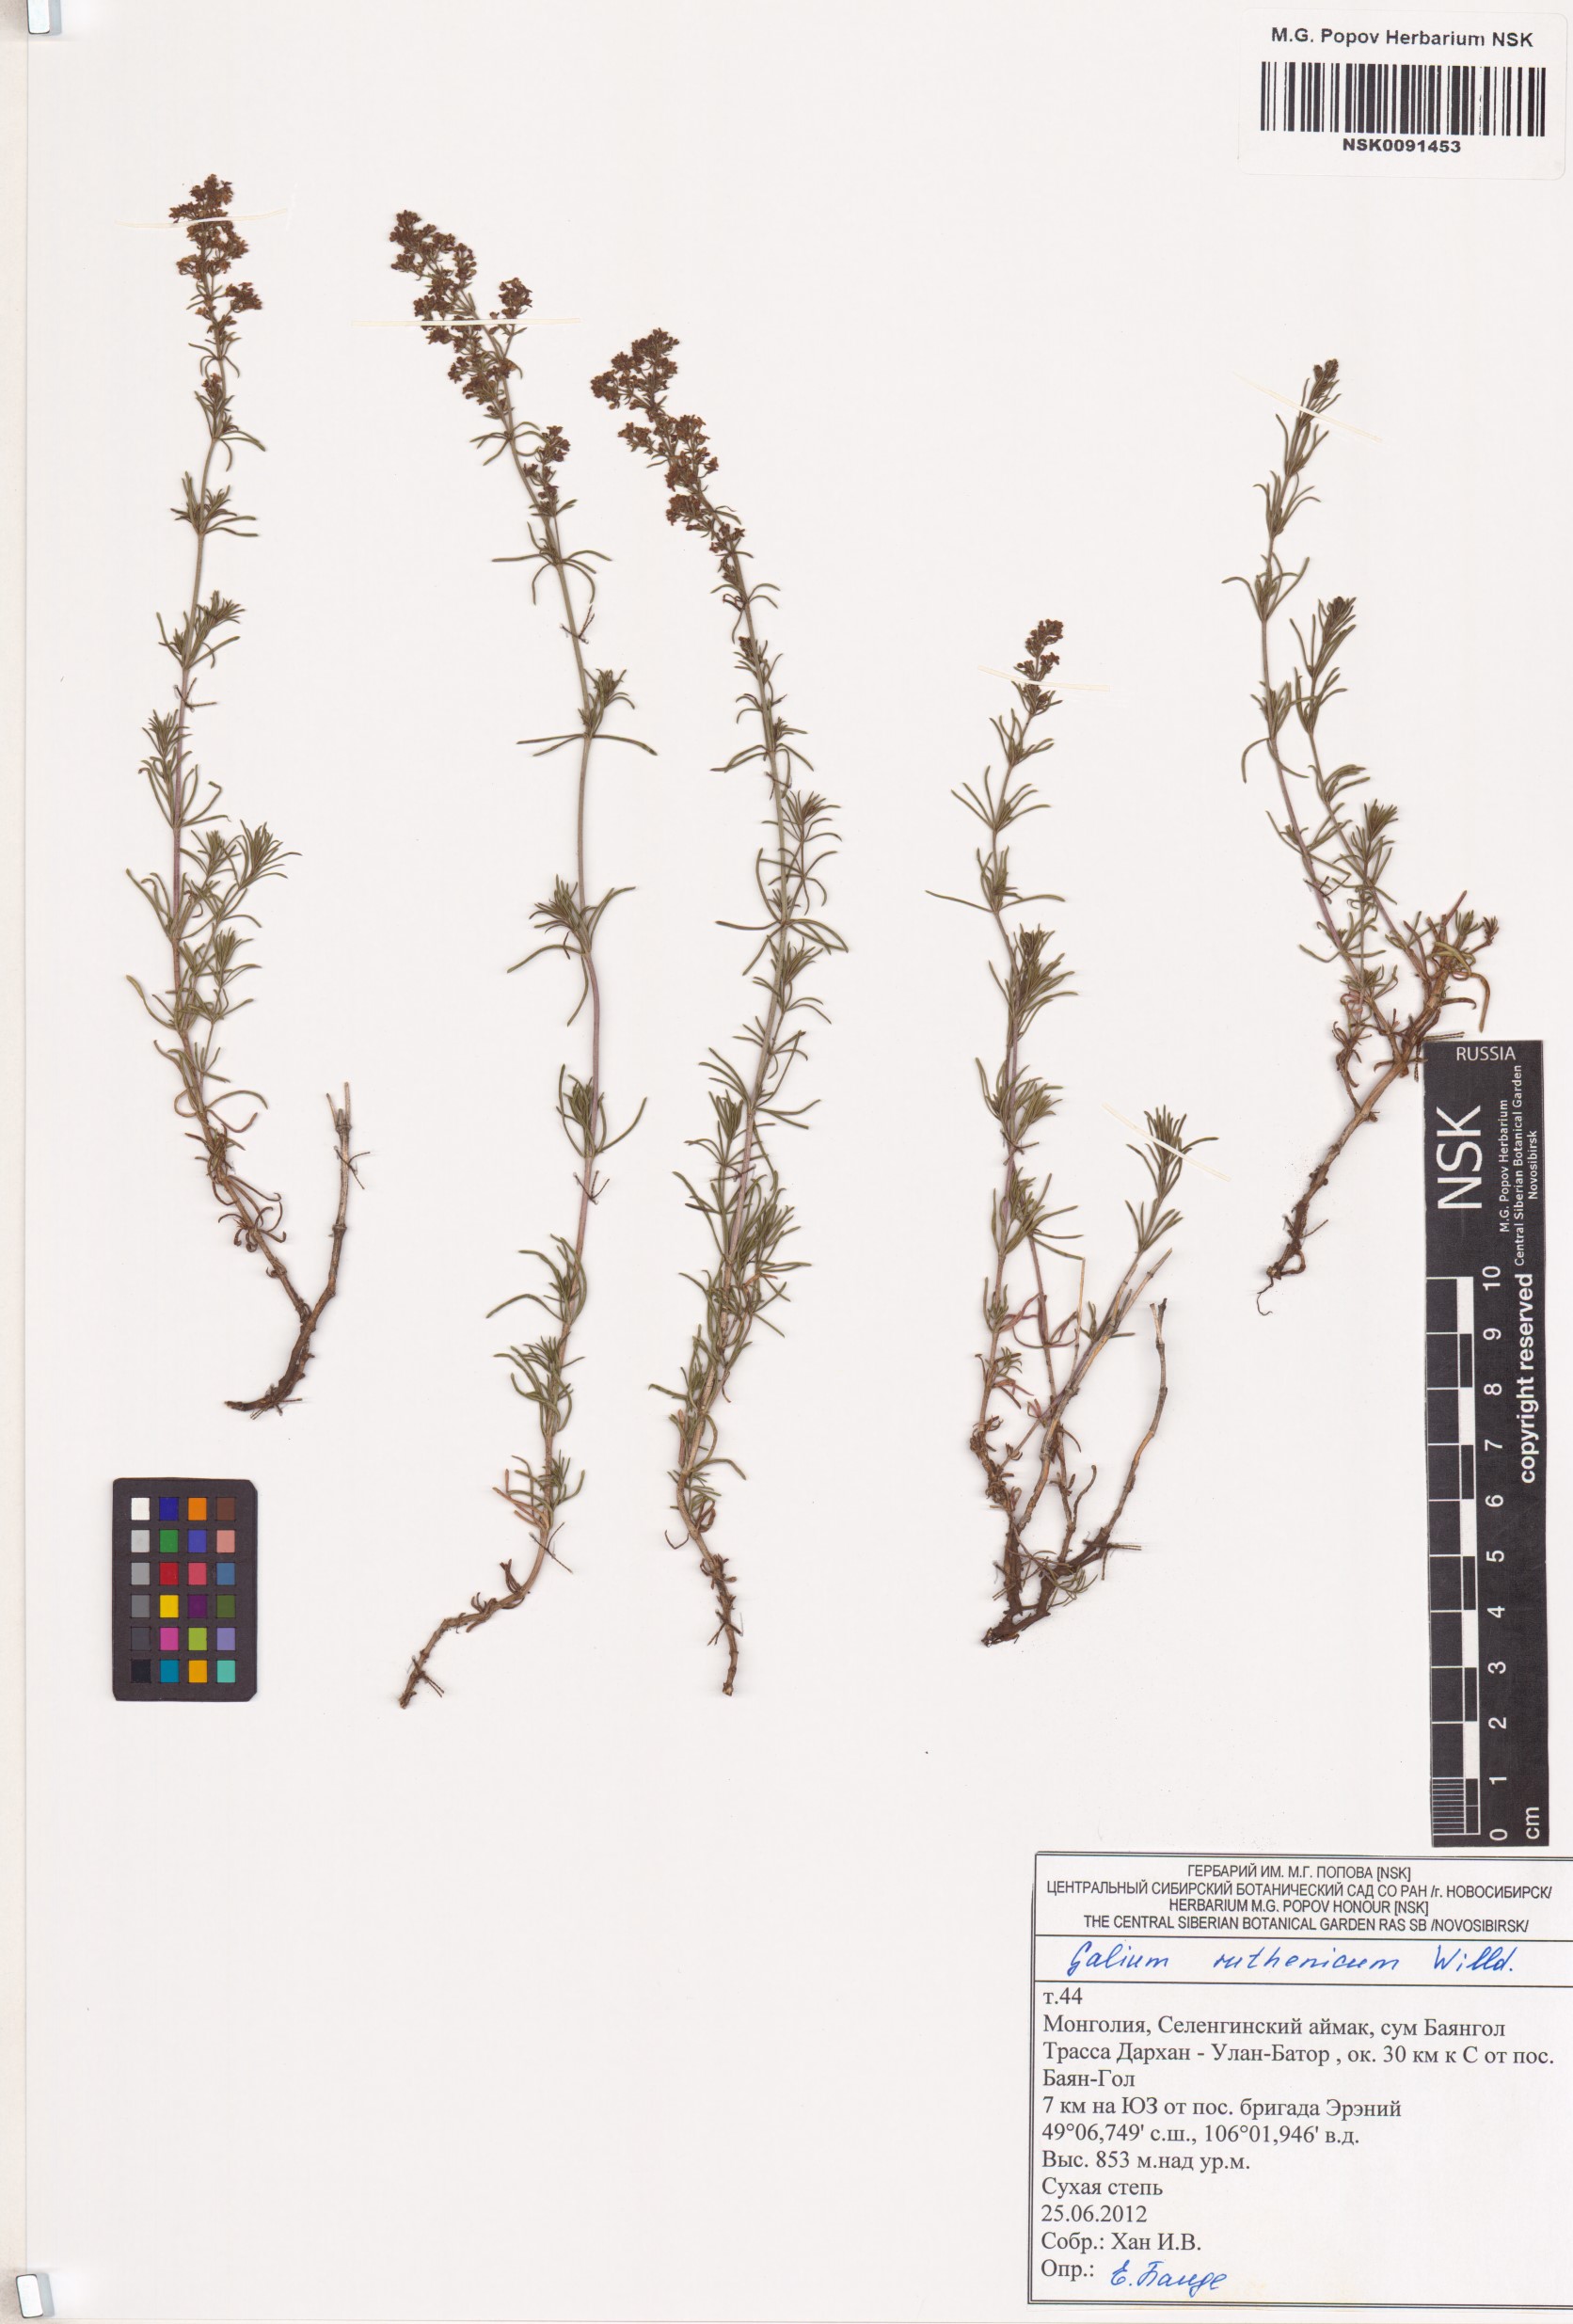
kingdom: Plantae
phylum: Tracheophyta
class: Magnoliopsida
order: Gentianales
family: Rubiaceae
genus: Galium
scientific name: Galium verum
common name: Lady's bedstraw
